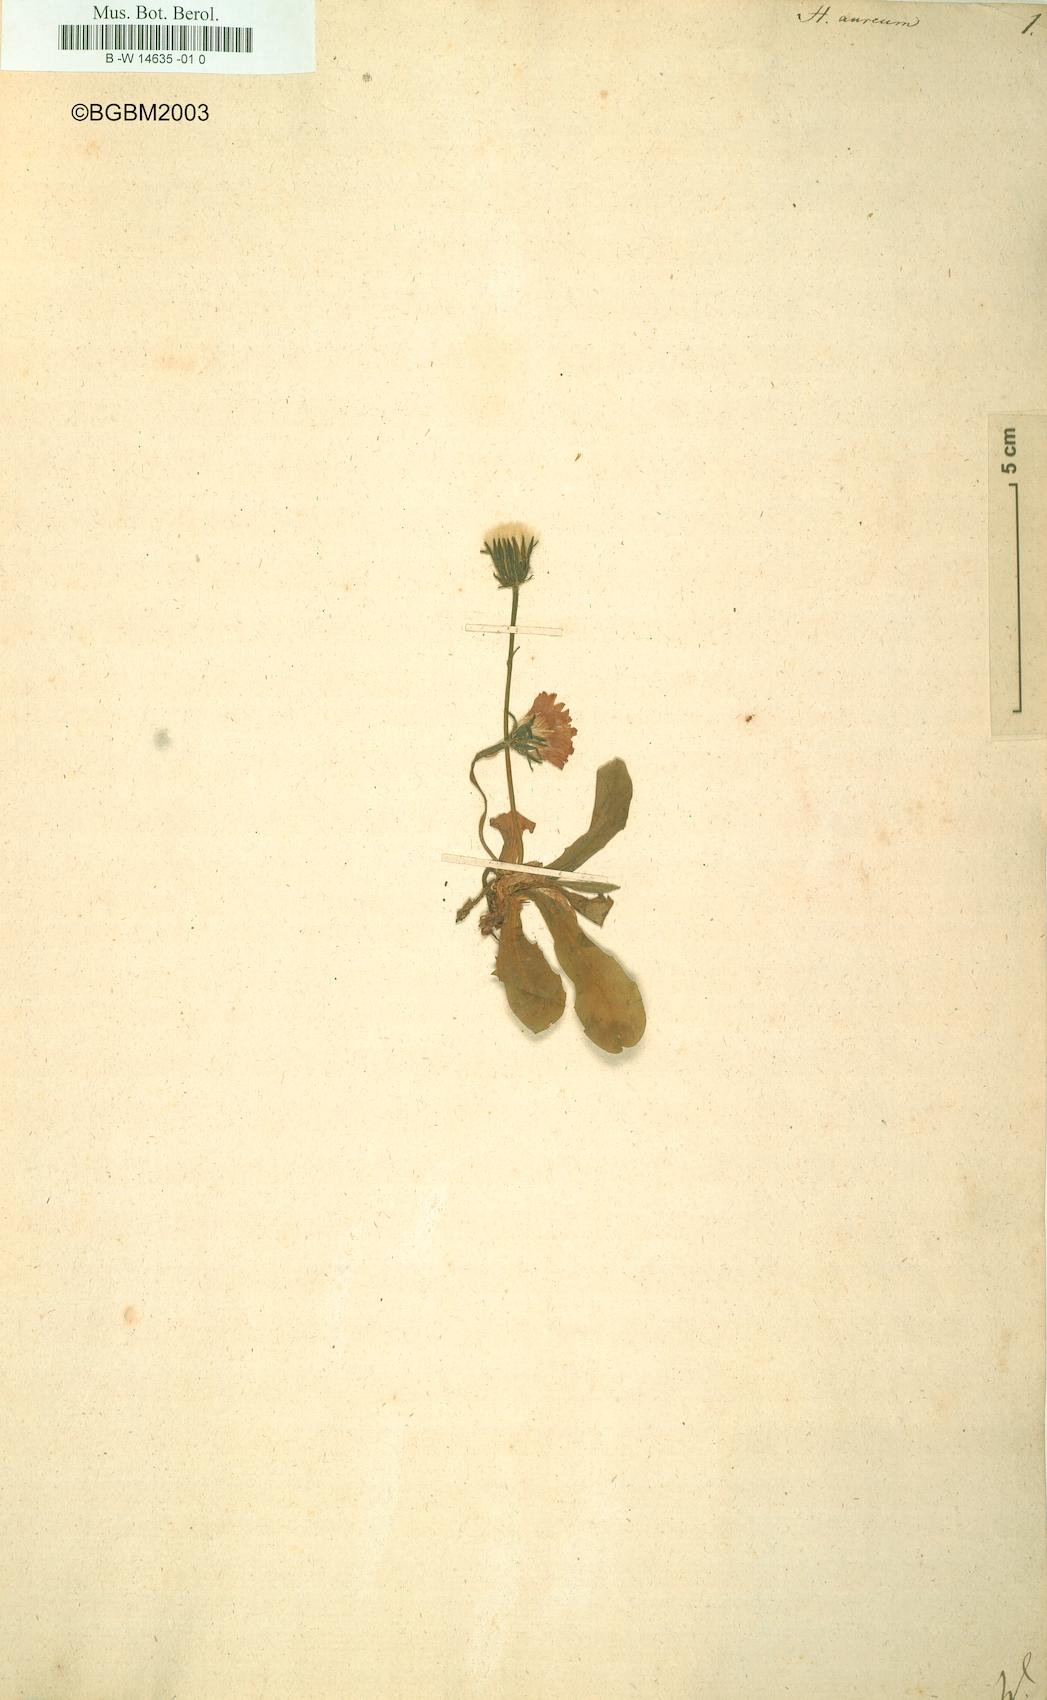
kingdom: Plantae
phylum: Tracheophyta
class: Magnoliopsida
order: Asterales
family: Asteraceae
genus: Hieracium
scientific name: Hieracium aureum
